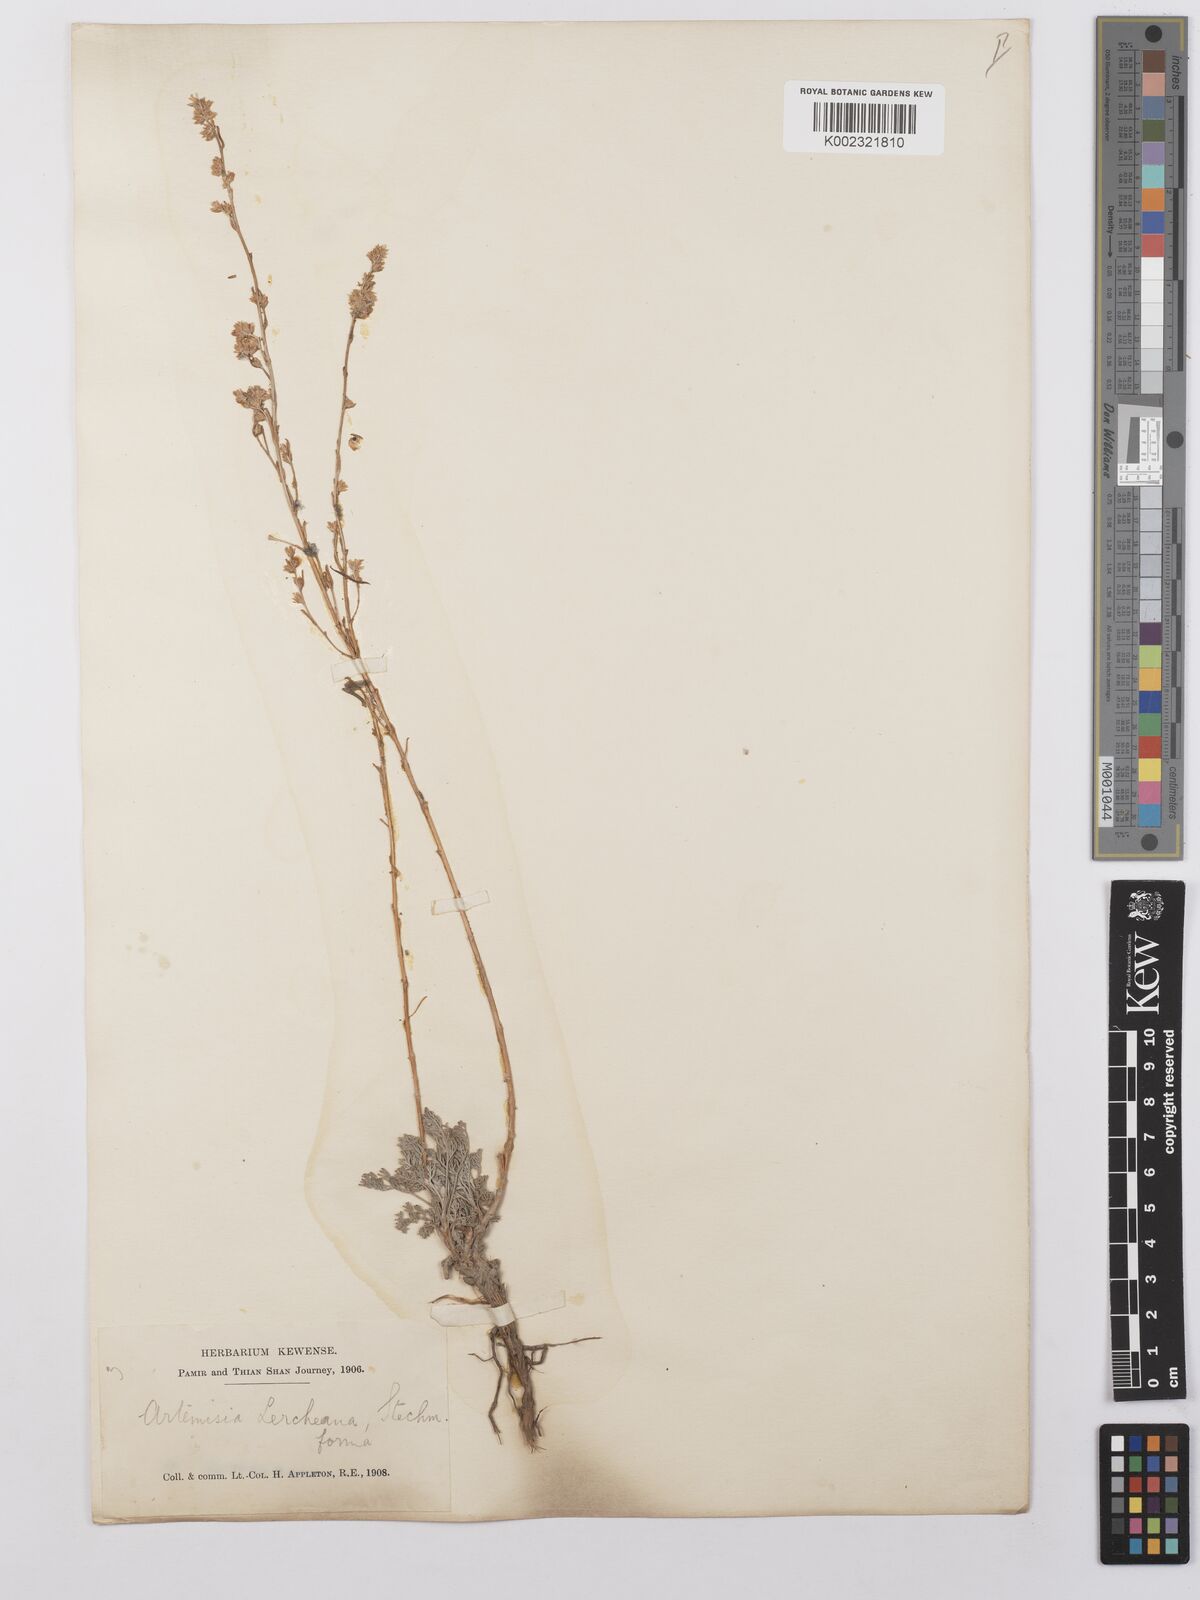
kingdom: Plantae
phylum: Tracheophyta
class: Magnoliopsida
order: Asterales
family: Asteraceae
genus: Artemisia
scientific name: Artemisia lercheana
